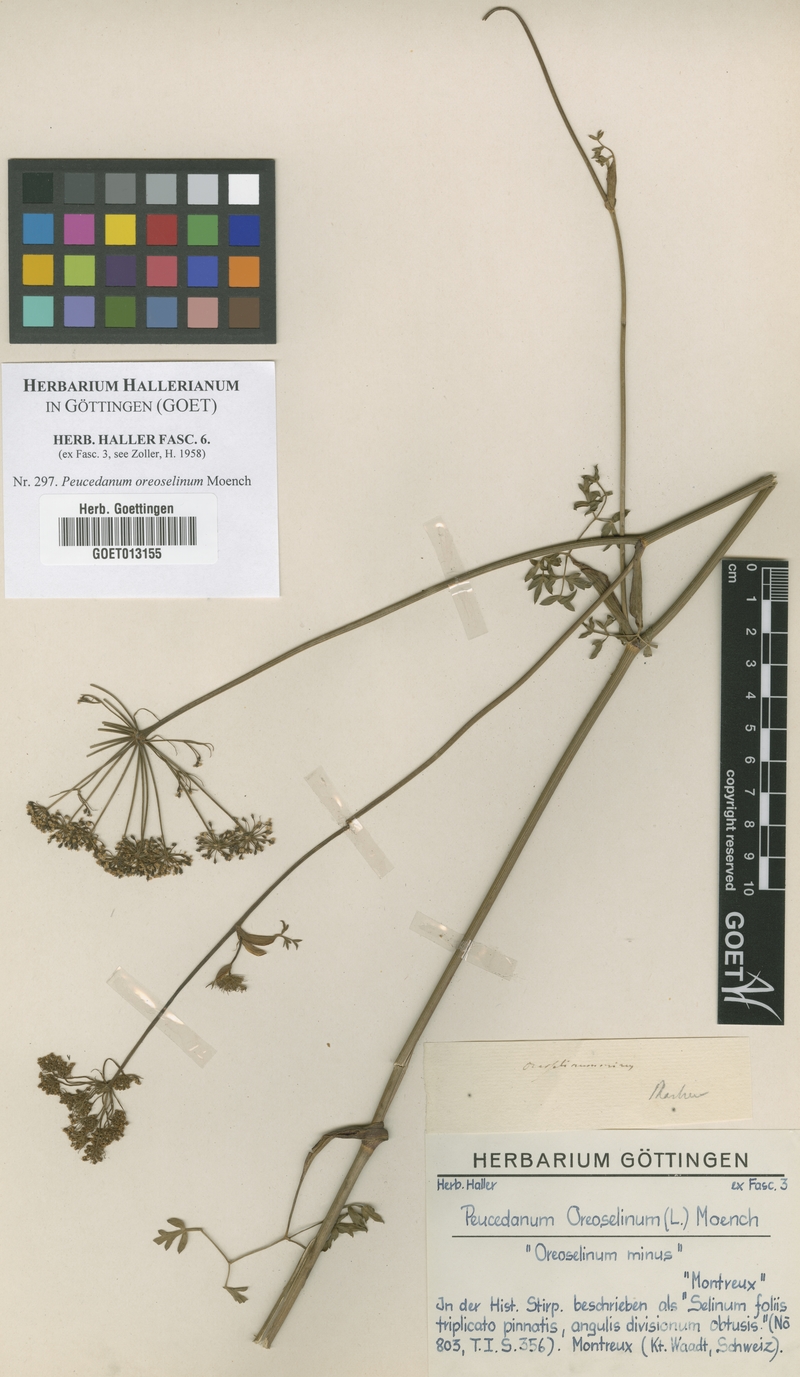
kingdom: Plantae
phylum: Tracheophyta
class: Magnoliopsida
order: Apiales
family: Apiaceae
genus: Oreoselinum
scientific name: Oreoselinum nigrum
